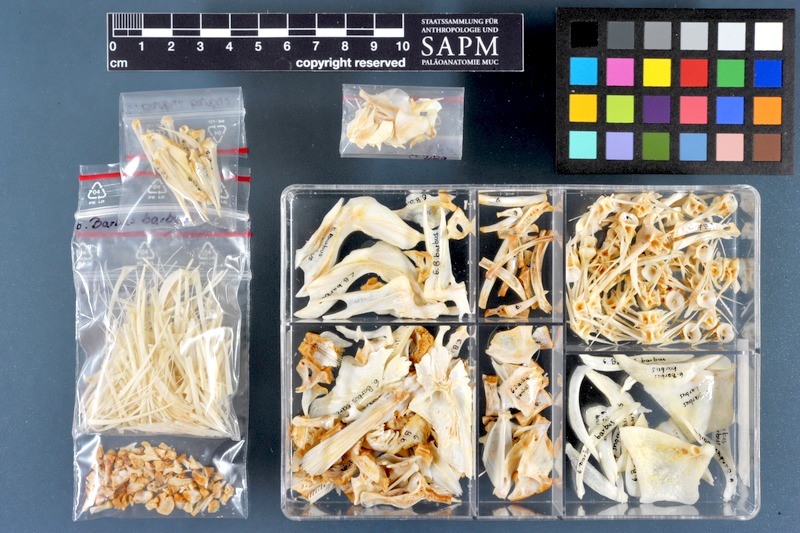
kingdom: Animalia
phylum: Chordata
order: Cypriniformes
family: Cyprinidae
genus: Barbus
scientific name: Barbus barbus
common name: Barbel
